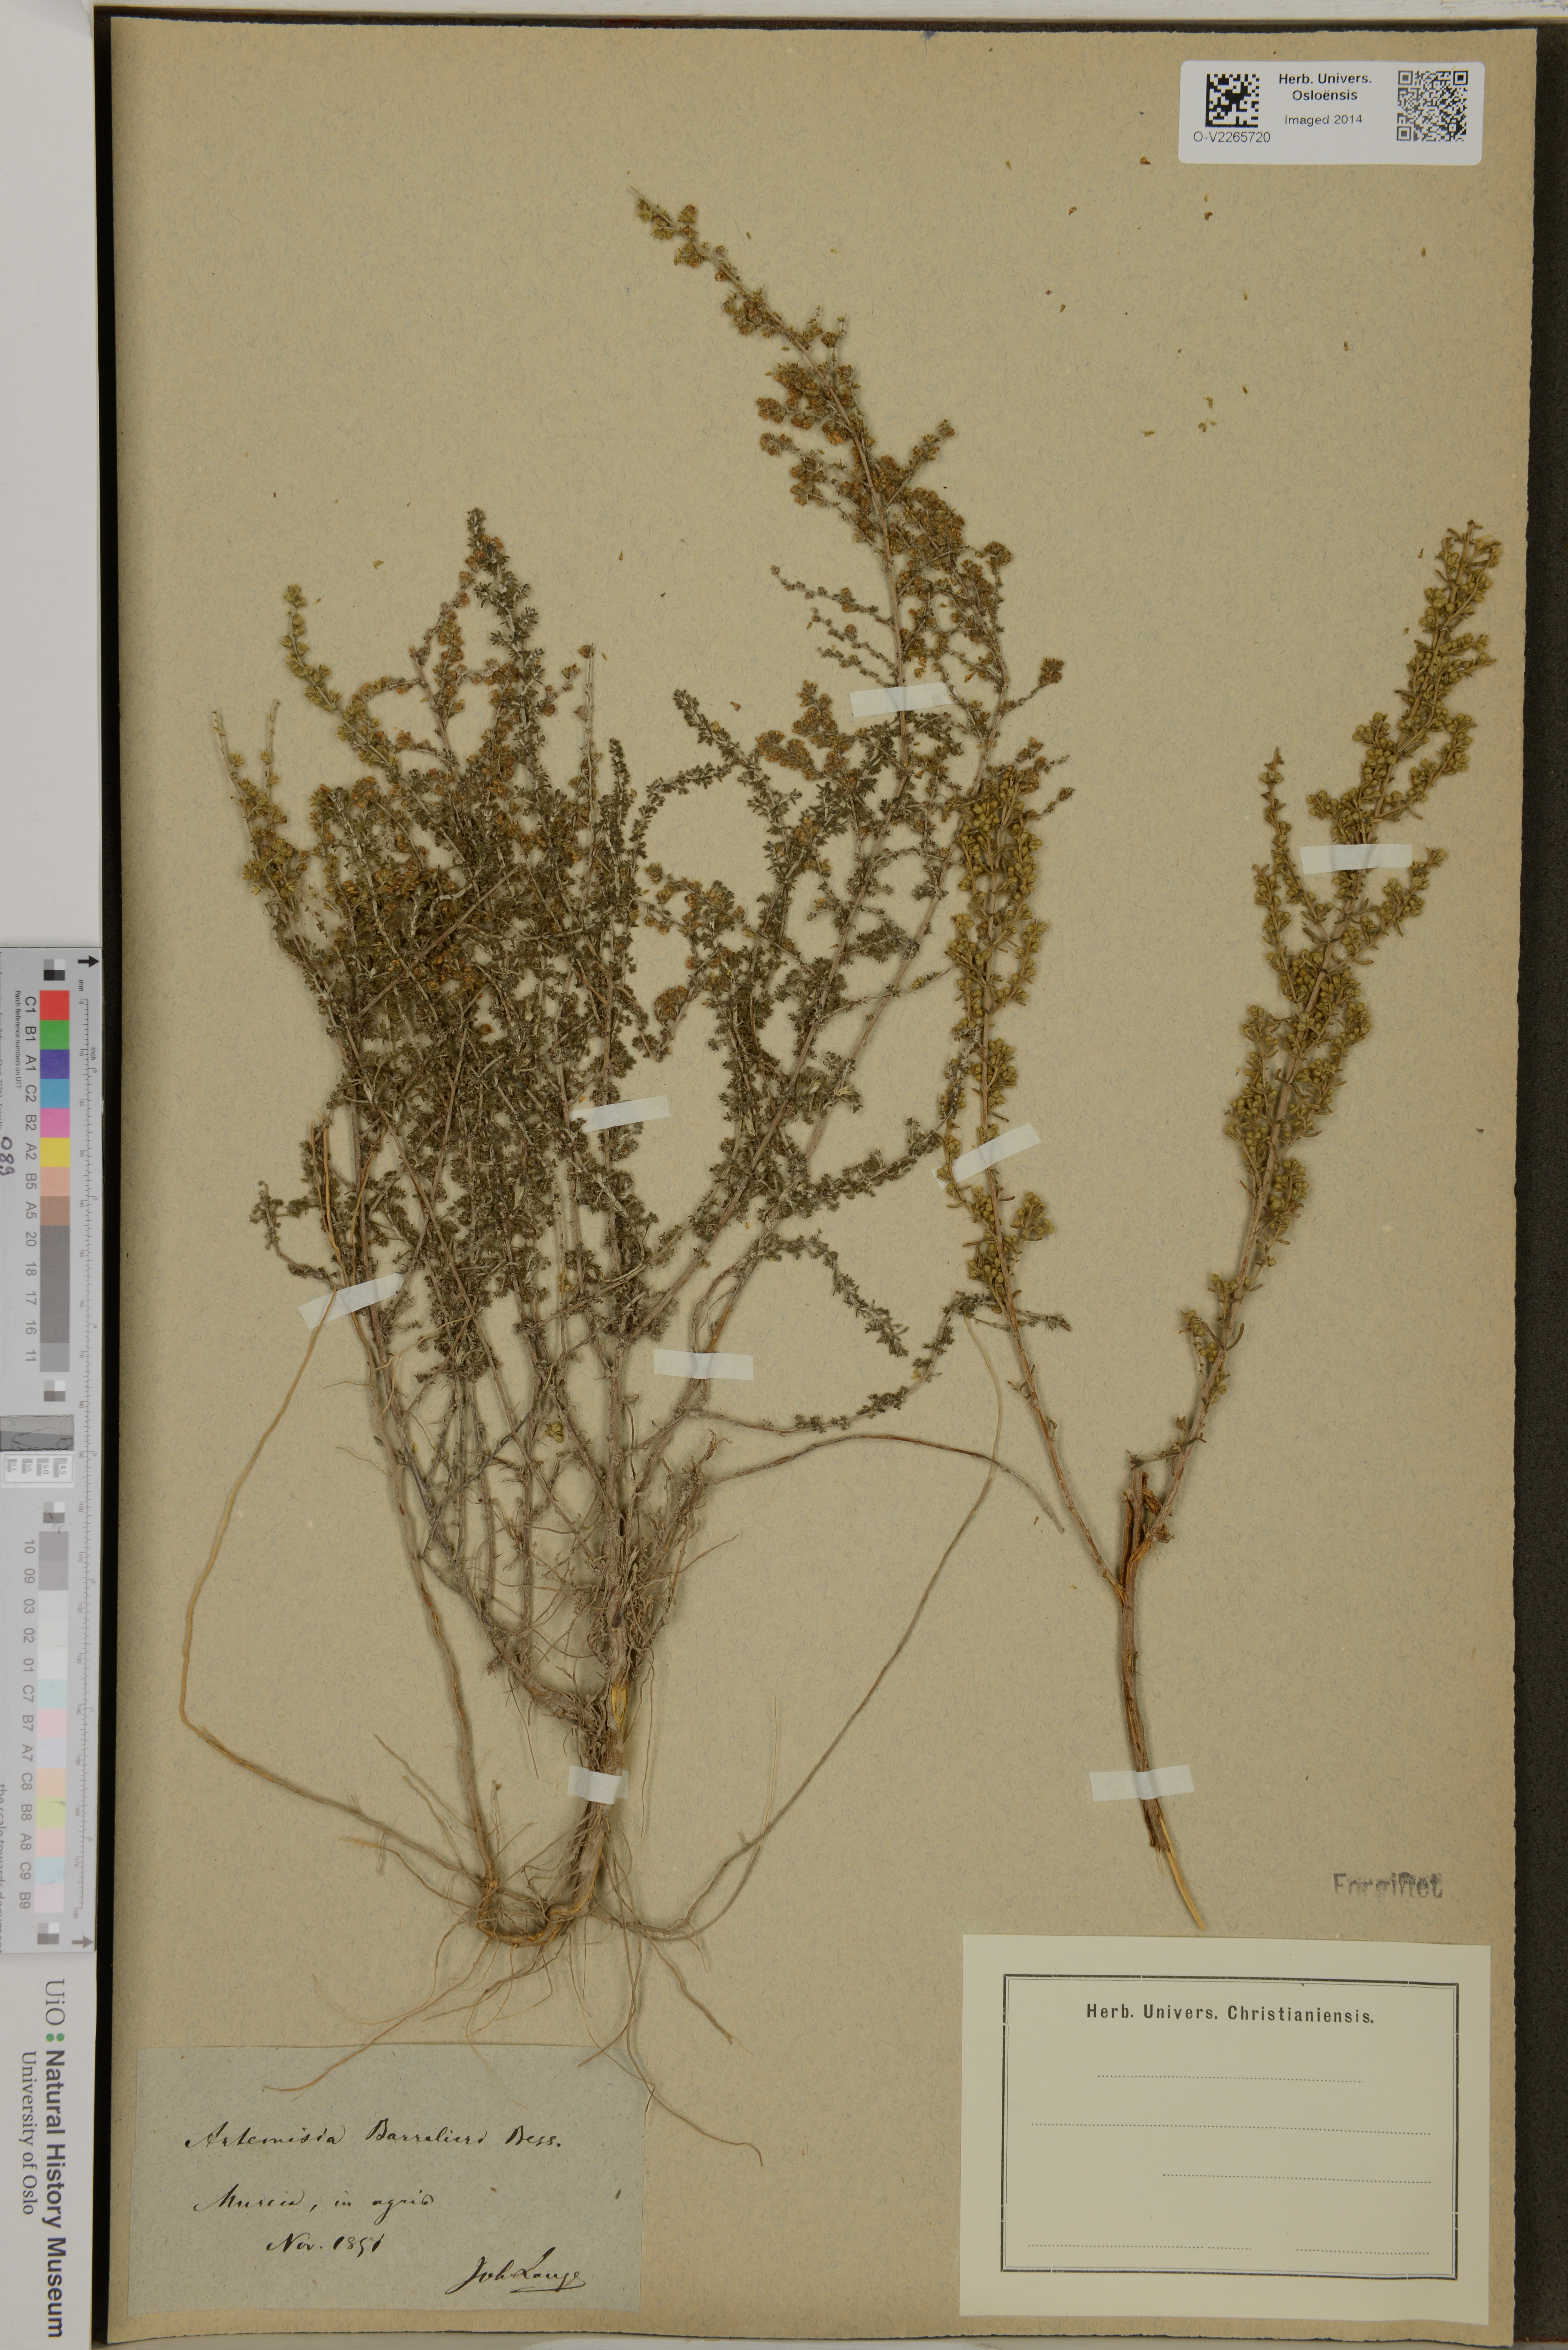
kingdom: Plantae
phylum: Tracheophyta
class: Magnoliopsida
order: Asterales
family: Asteraceae
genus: Artemisia
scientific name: Artemisia barrelieri
